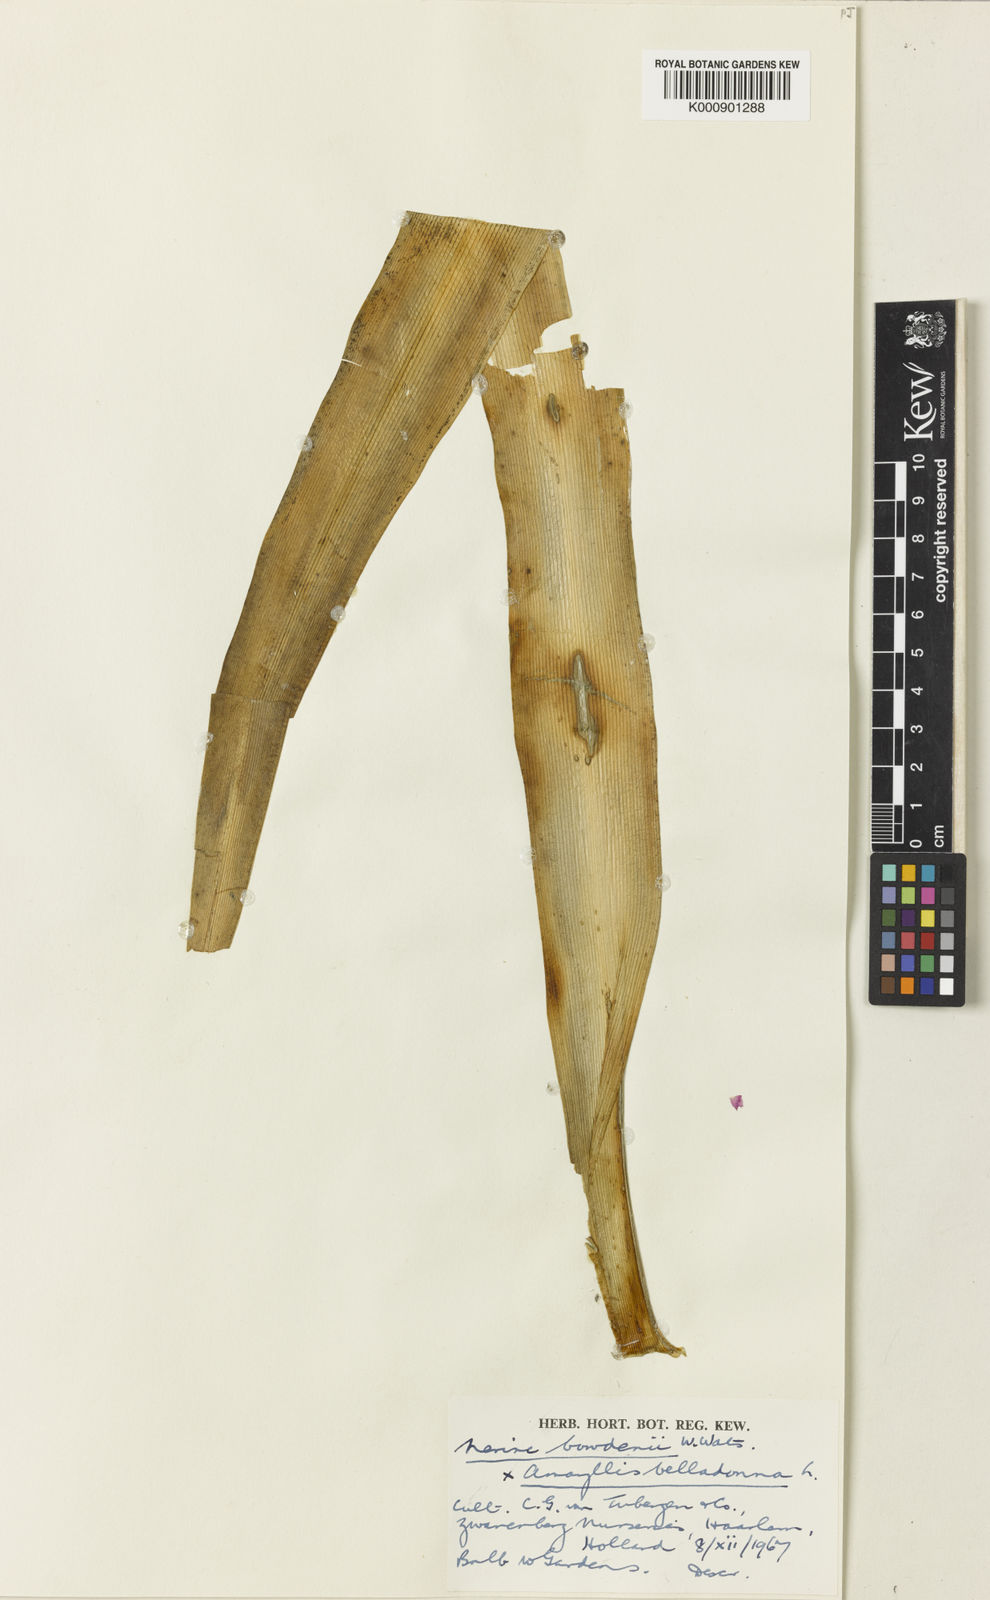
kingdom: Plantae
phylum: Tracheophyta
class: Liliopsida
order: Asparagales
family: Amaryllidaceae
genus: Amarine
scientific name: Amarine tubergenii
